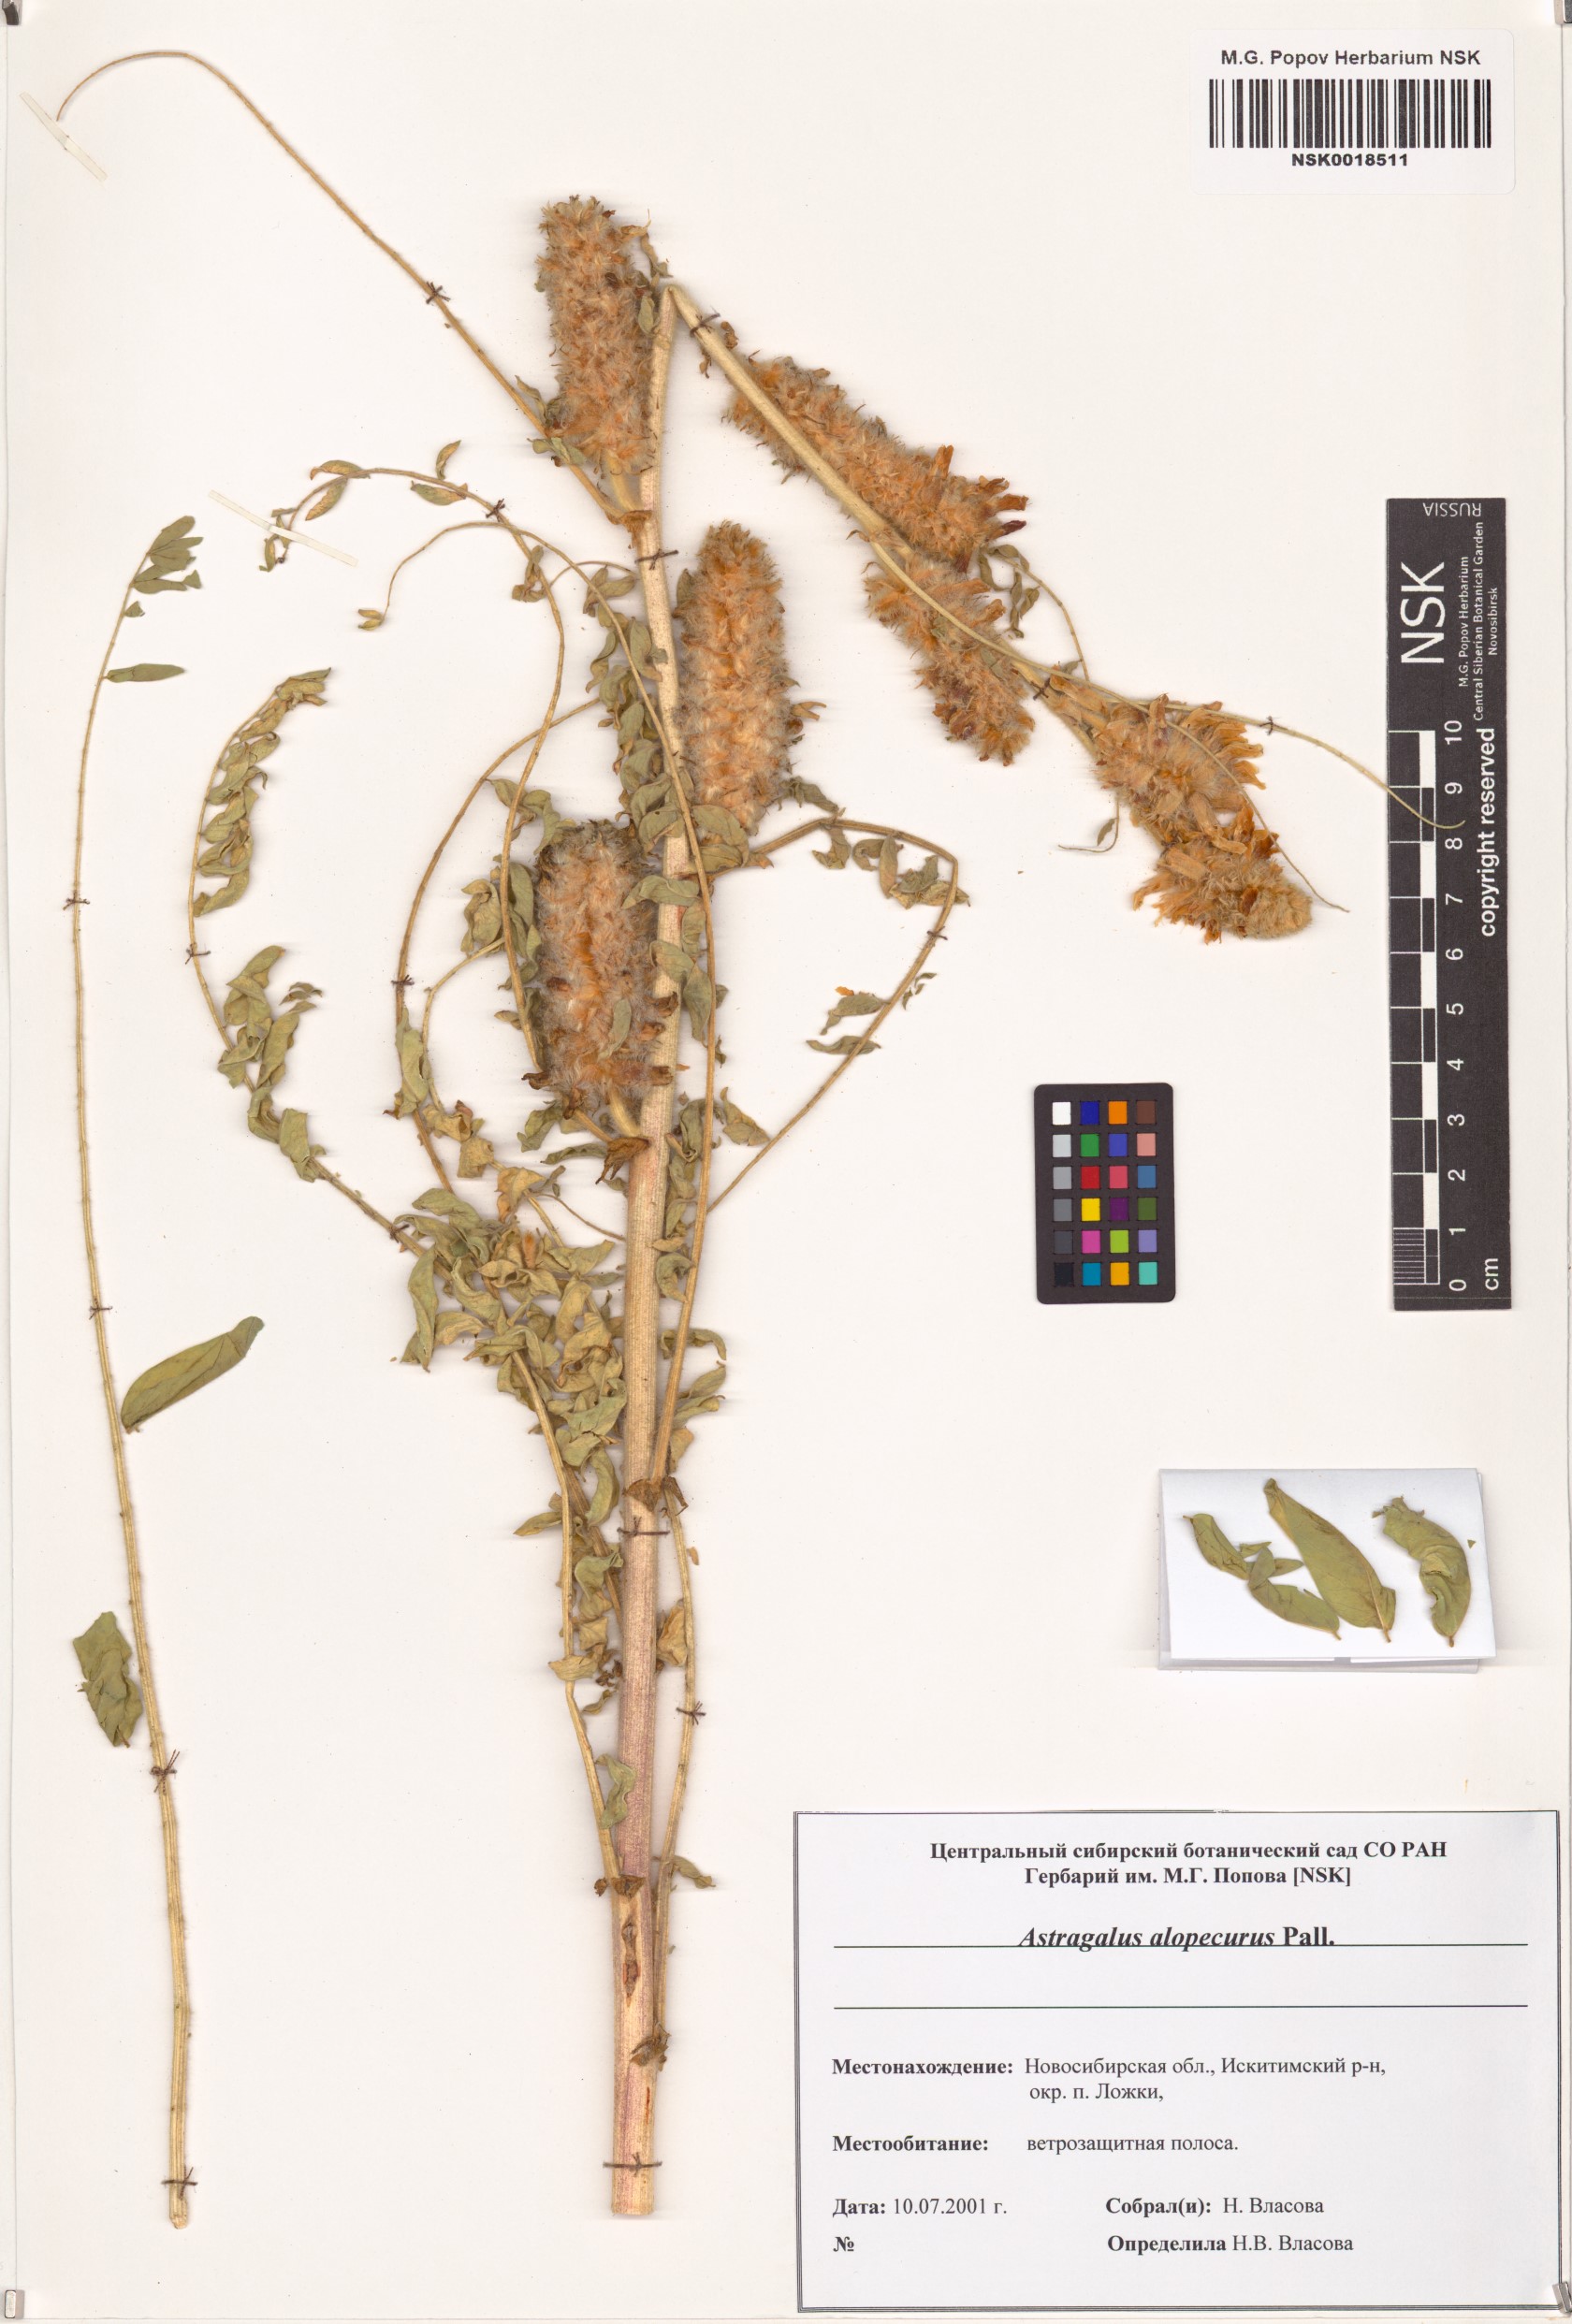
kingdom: Plantae
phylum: Tracheophyta
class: Magnoliopsida
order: Fabales
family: Fabaceae
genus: Astragalus
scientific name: Astragalus alopecurus
